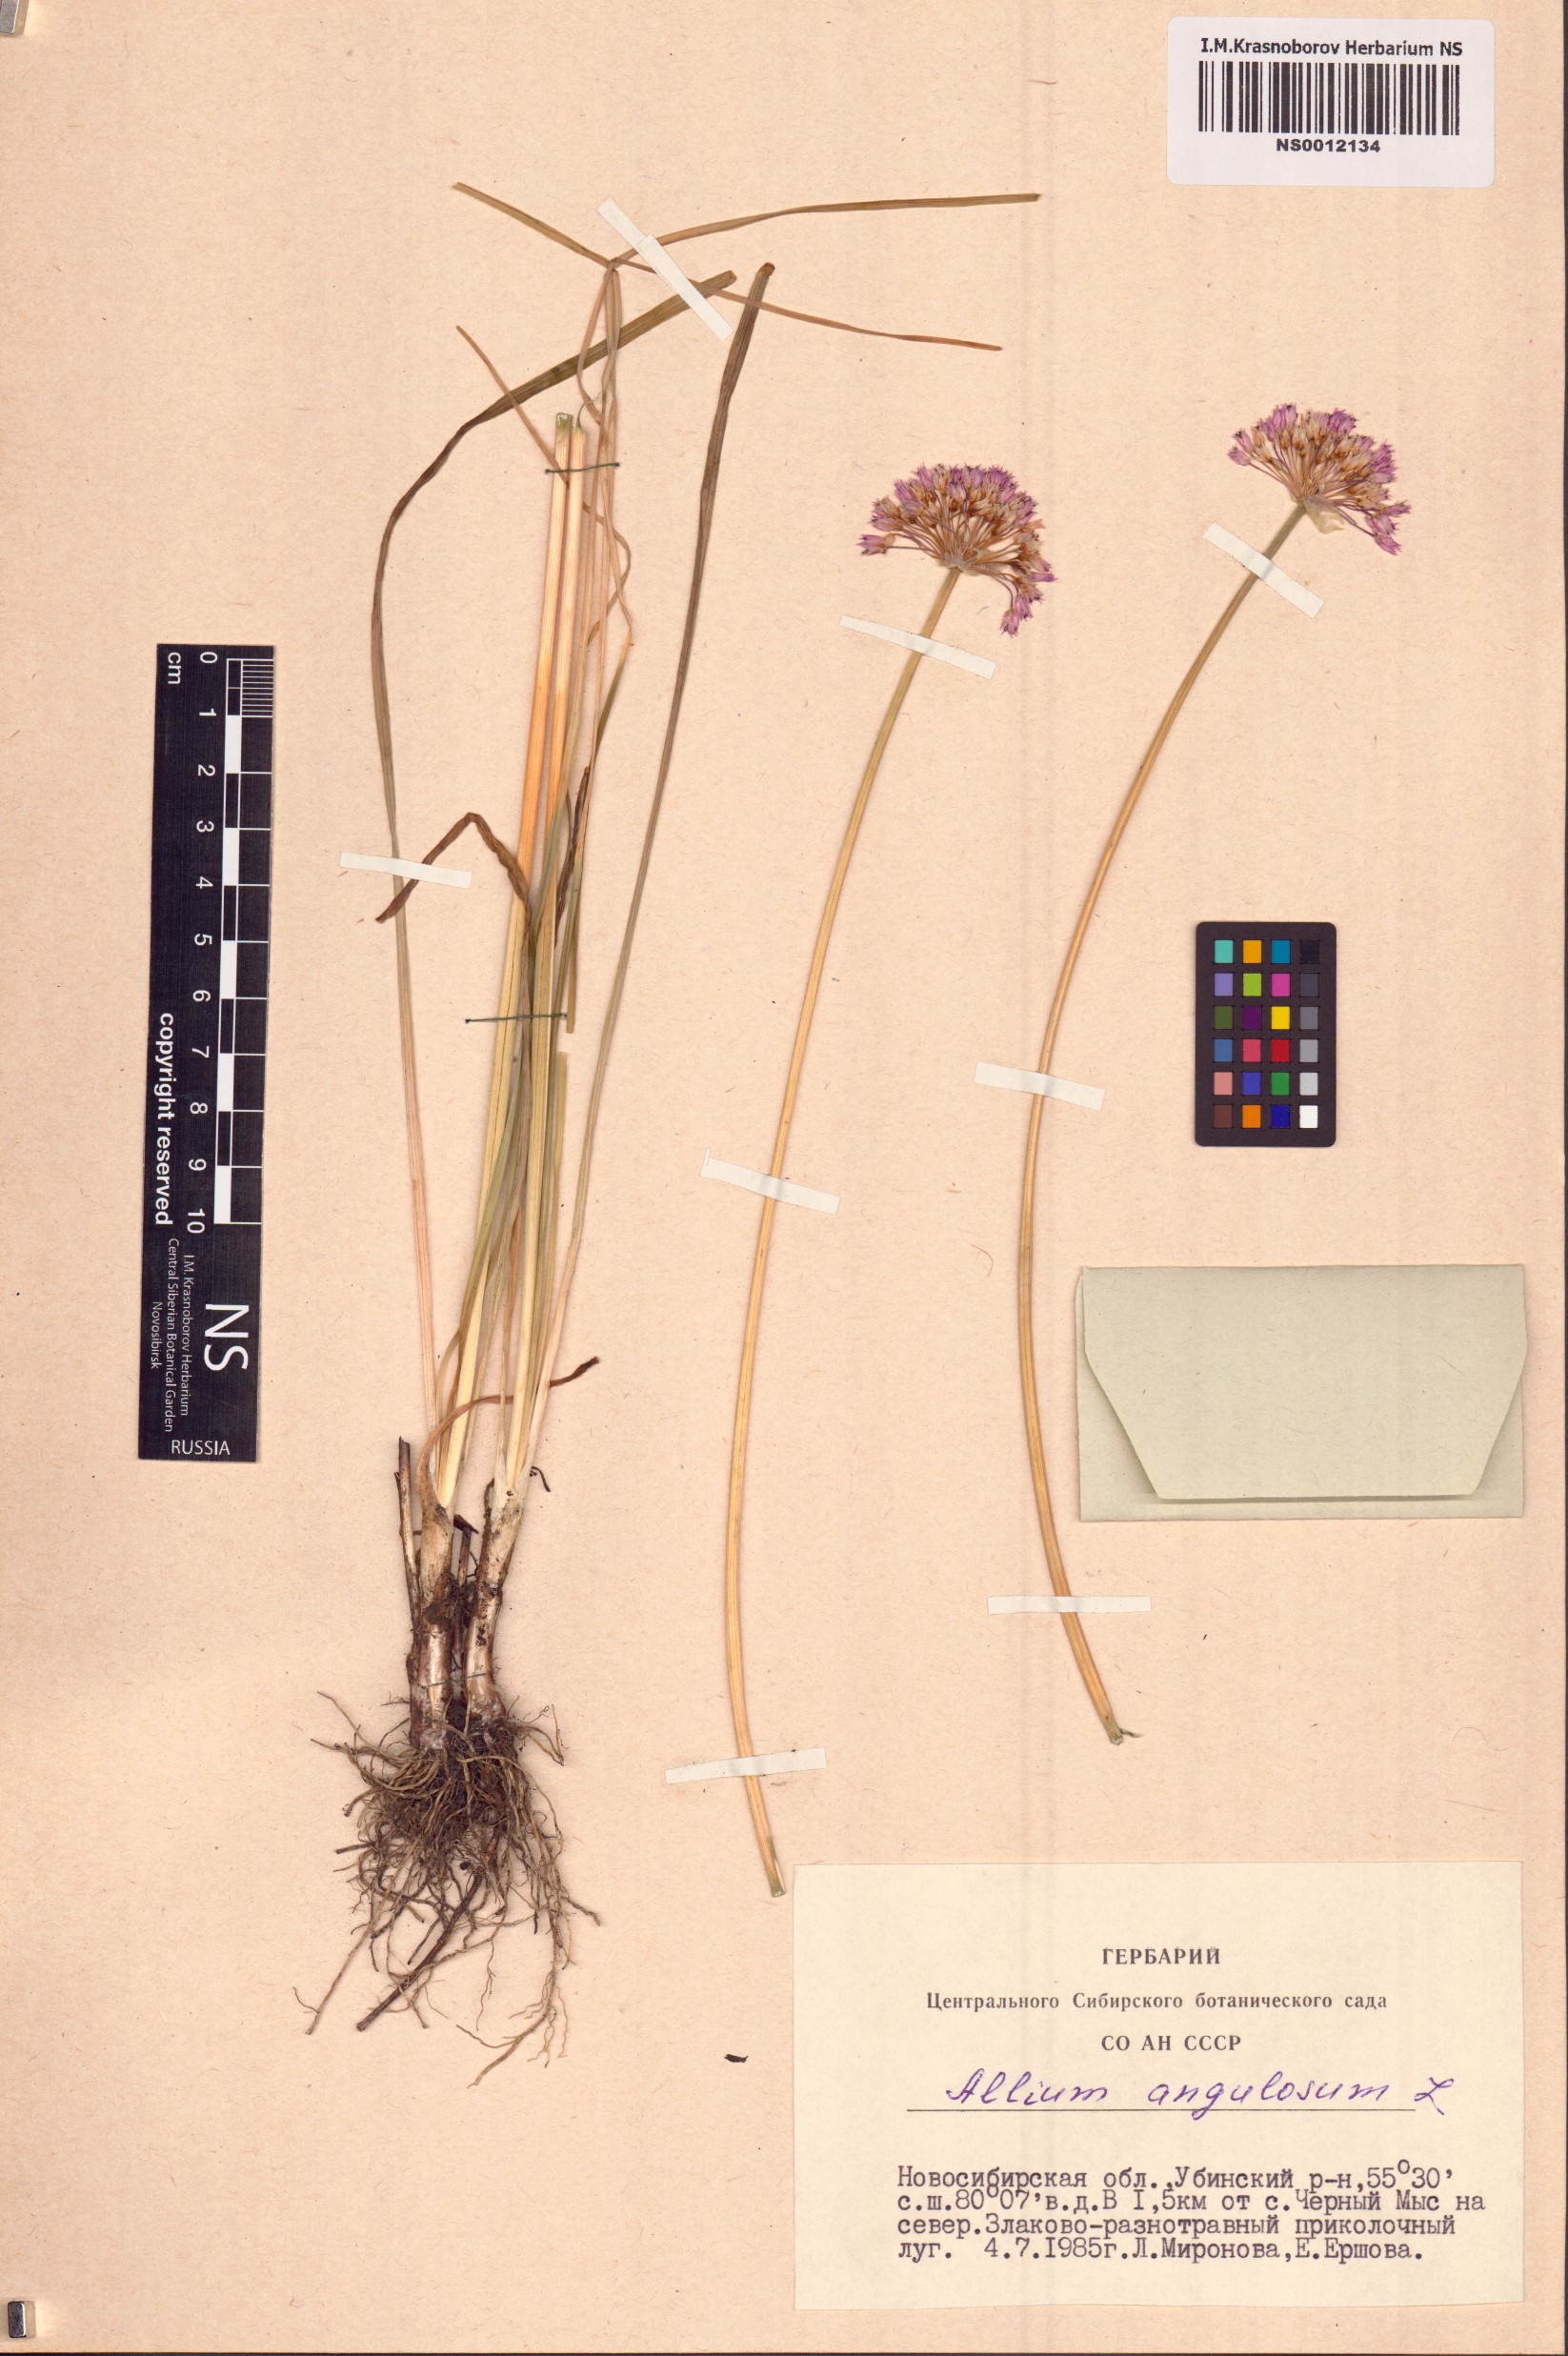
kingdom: Plantae
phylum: Tracheophyta
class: Liliopsida
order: Asparagales
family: Amaryllidaceae
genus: Allium
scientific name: Allium angulosum
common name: Mouse garlic
